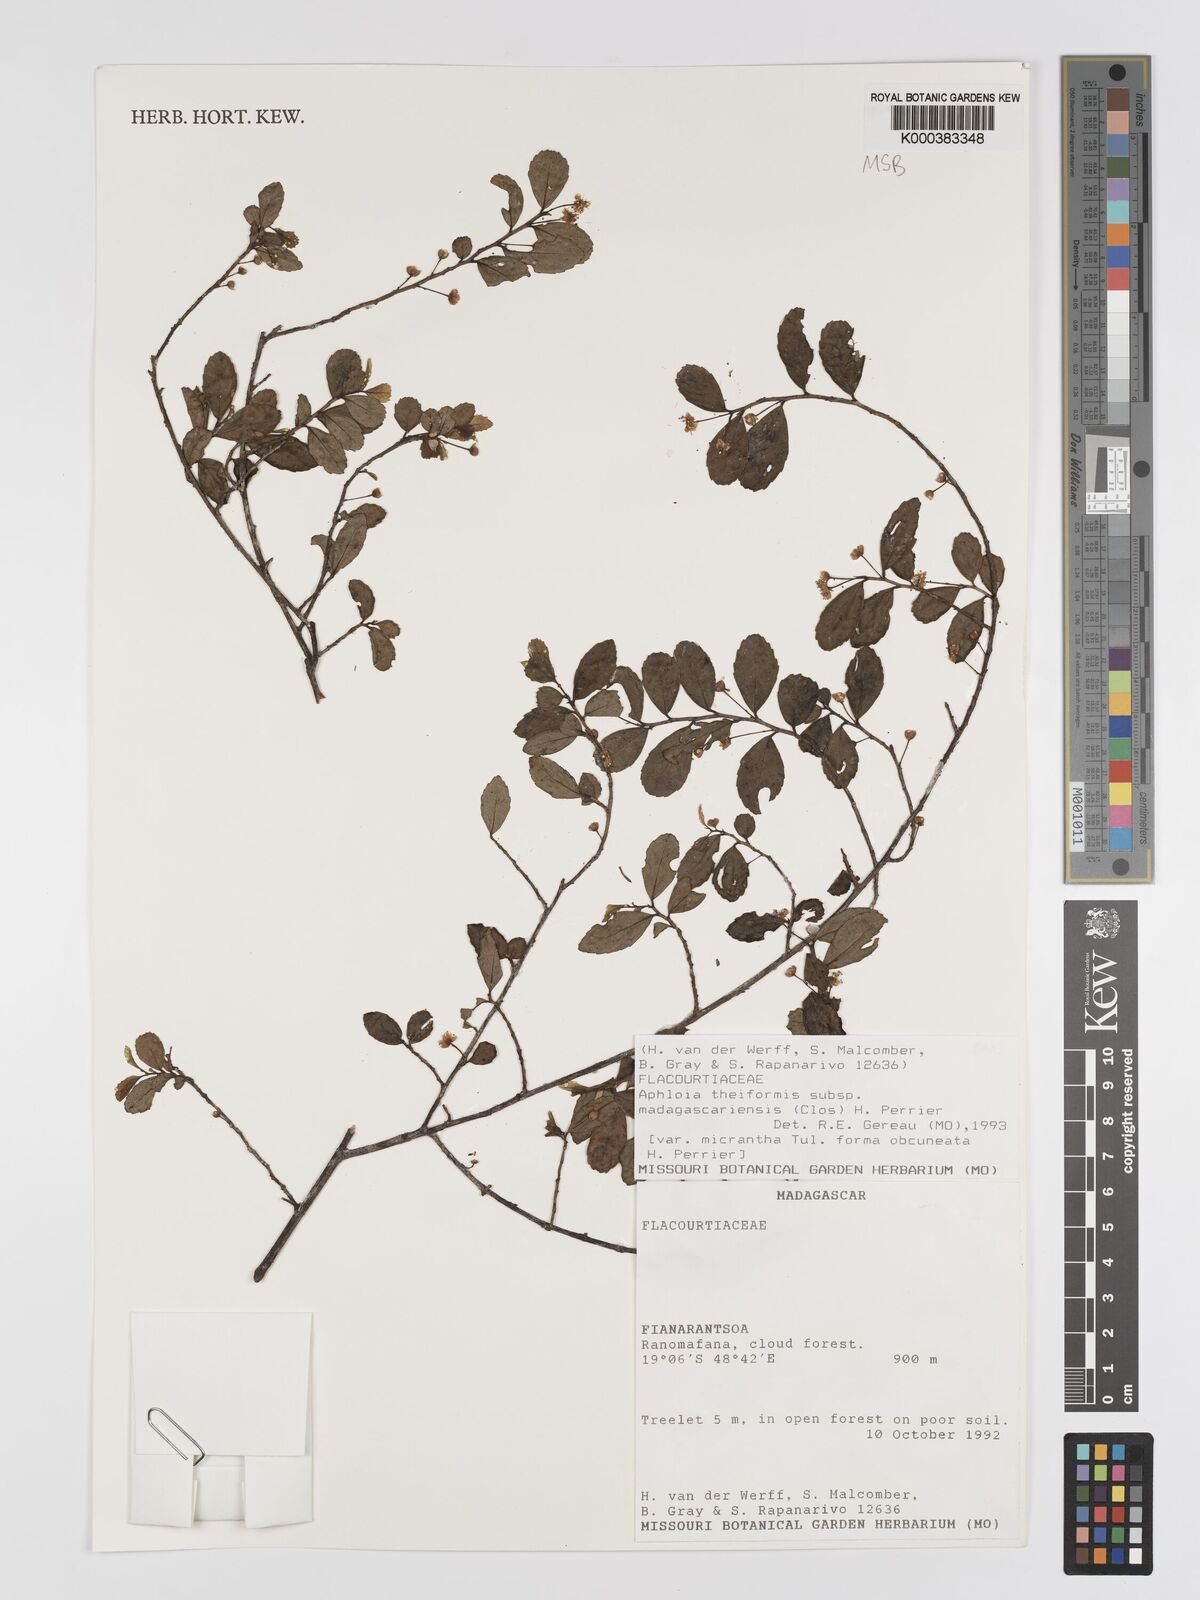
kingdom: Plantae
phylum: Tracheophyta
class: Magnoliopsida
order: Crossosomatales
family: Aphloiaceae
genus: Aphloia
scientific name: Aphloia theiformis
